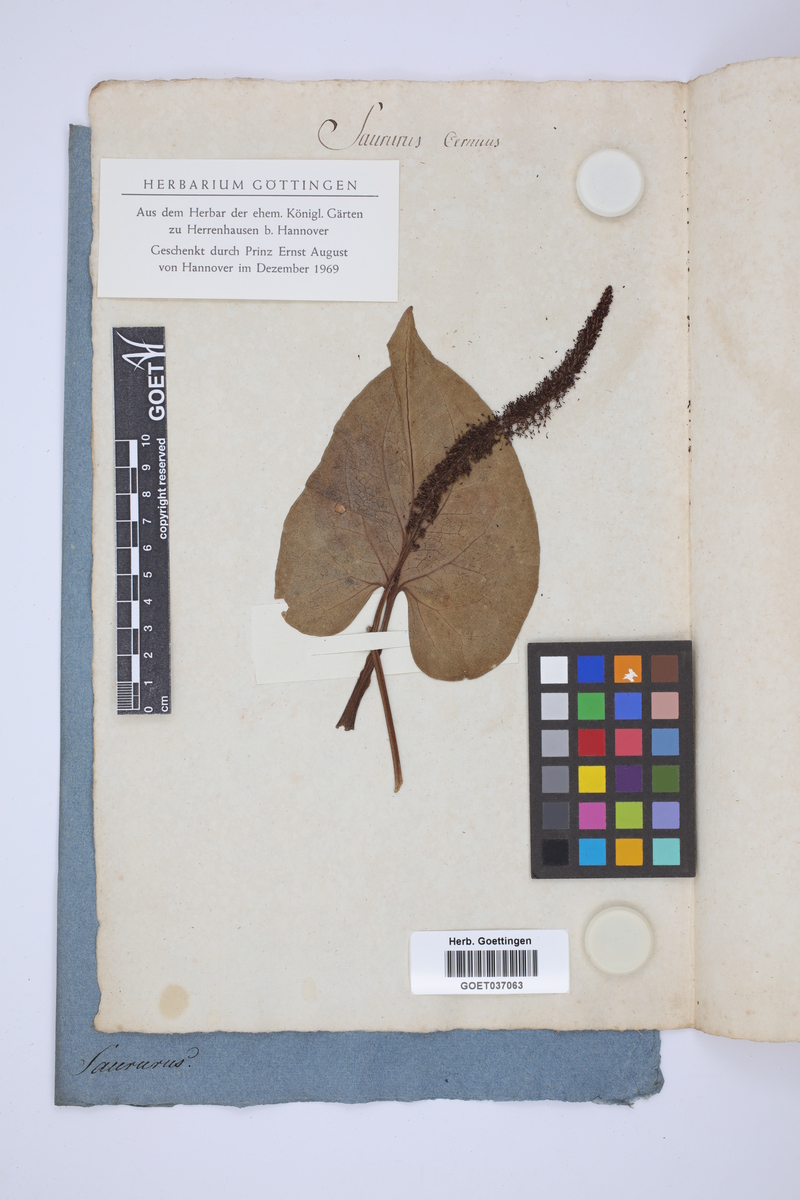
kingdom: Plantae
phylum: Tracheophyta
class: Magnoliopsida
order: Piperales
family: Saururaceae
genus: Saururus
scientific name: Saururus cernuus
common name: Lizard's-tail
